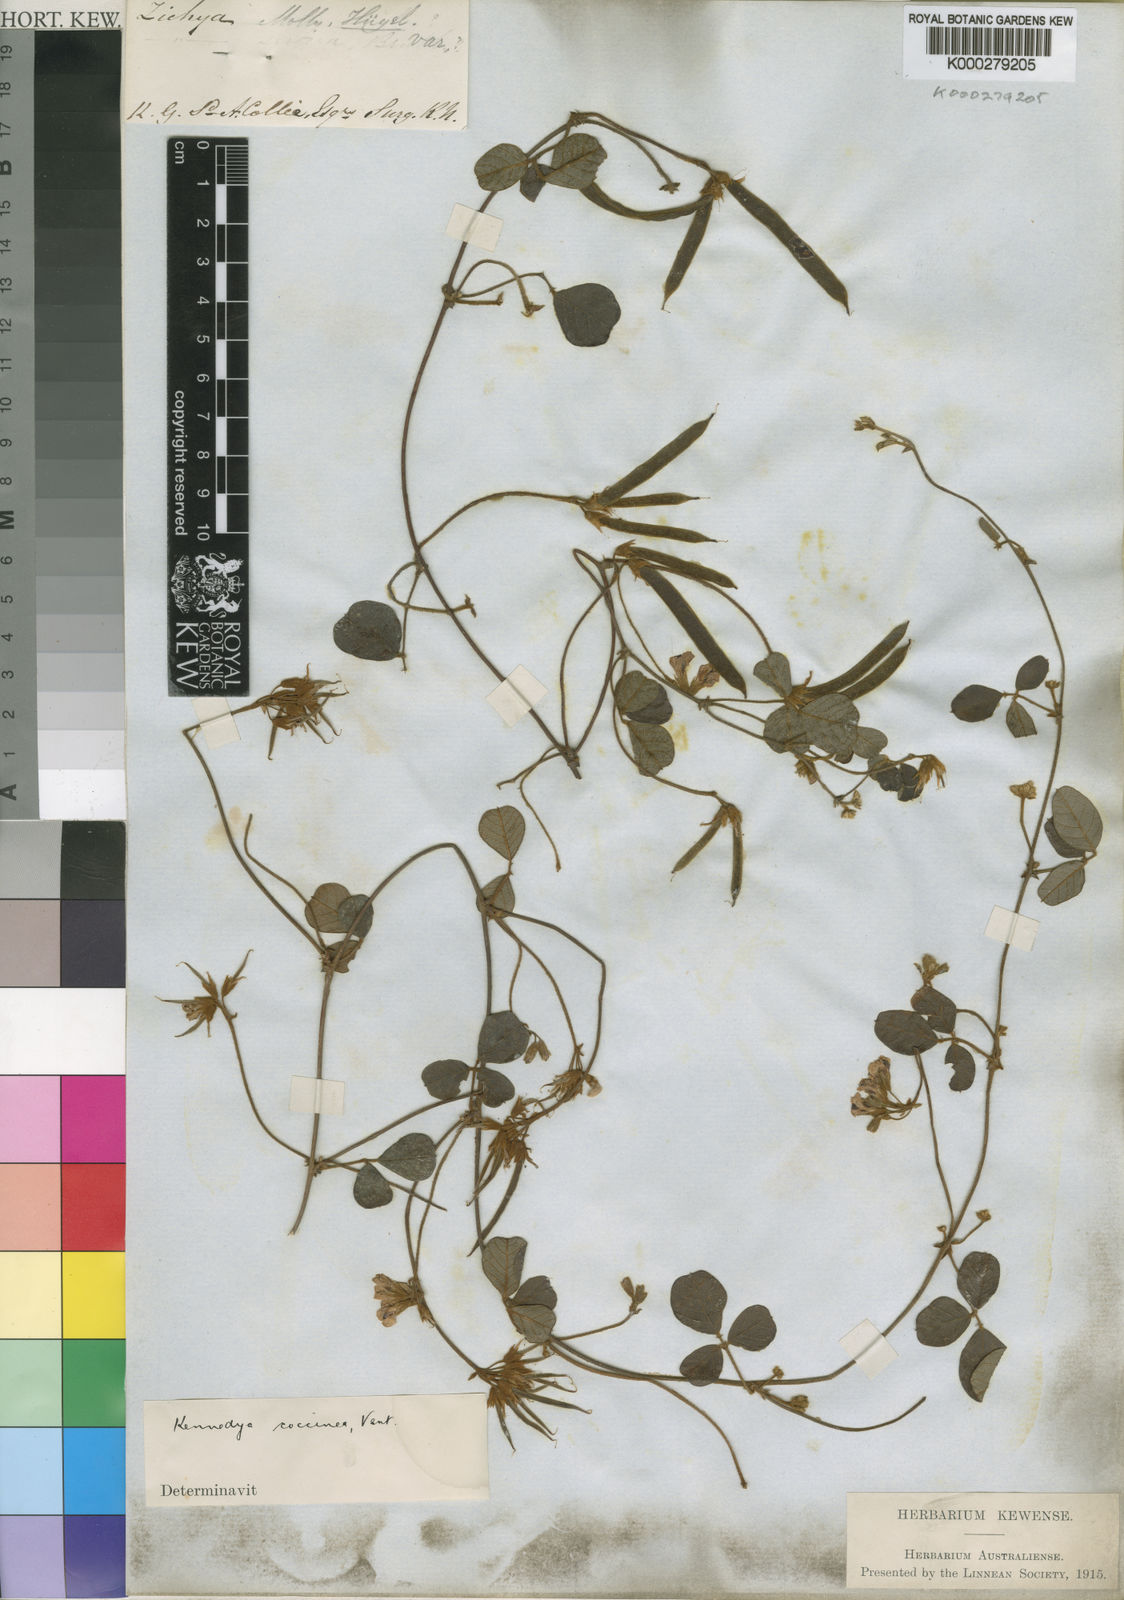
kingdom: Plantae
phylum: Tracheophyta
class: Magnoliopsida
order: Fabales
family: Fabaceae
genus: Kennedia
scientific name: Kennedia coccinea
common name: Coralvine
